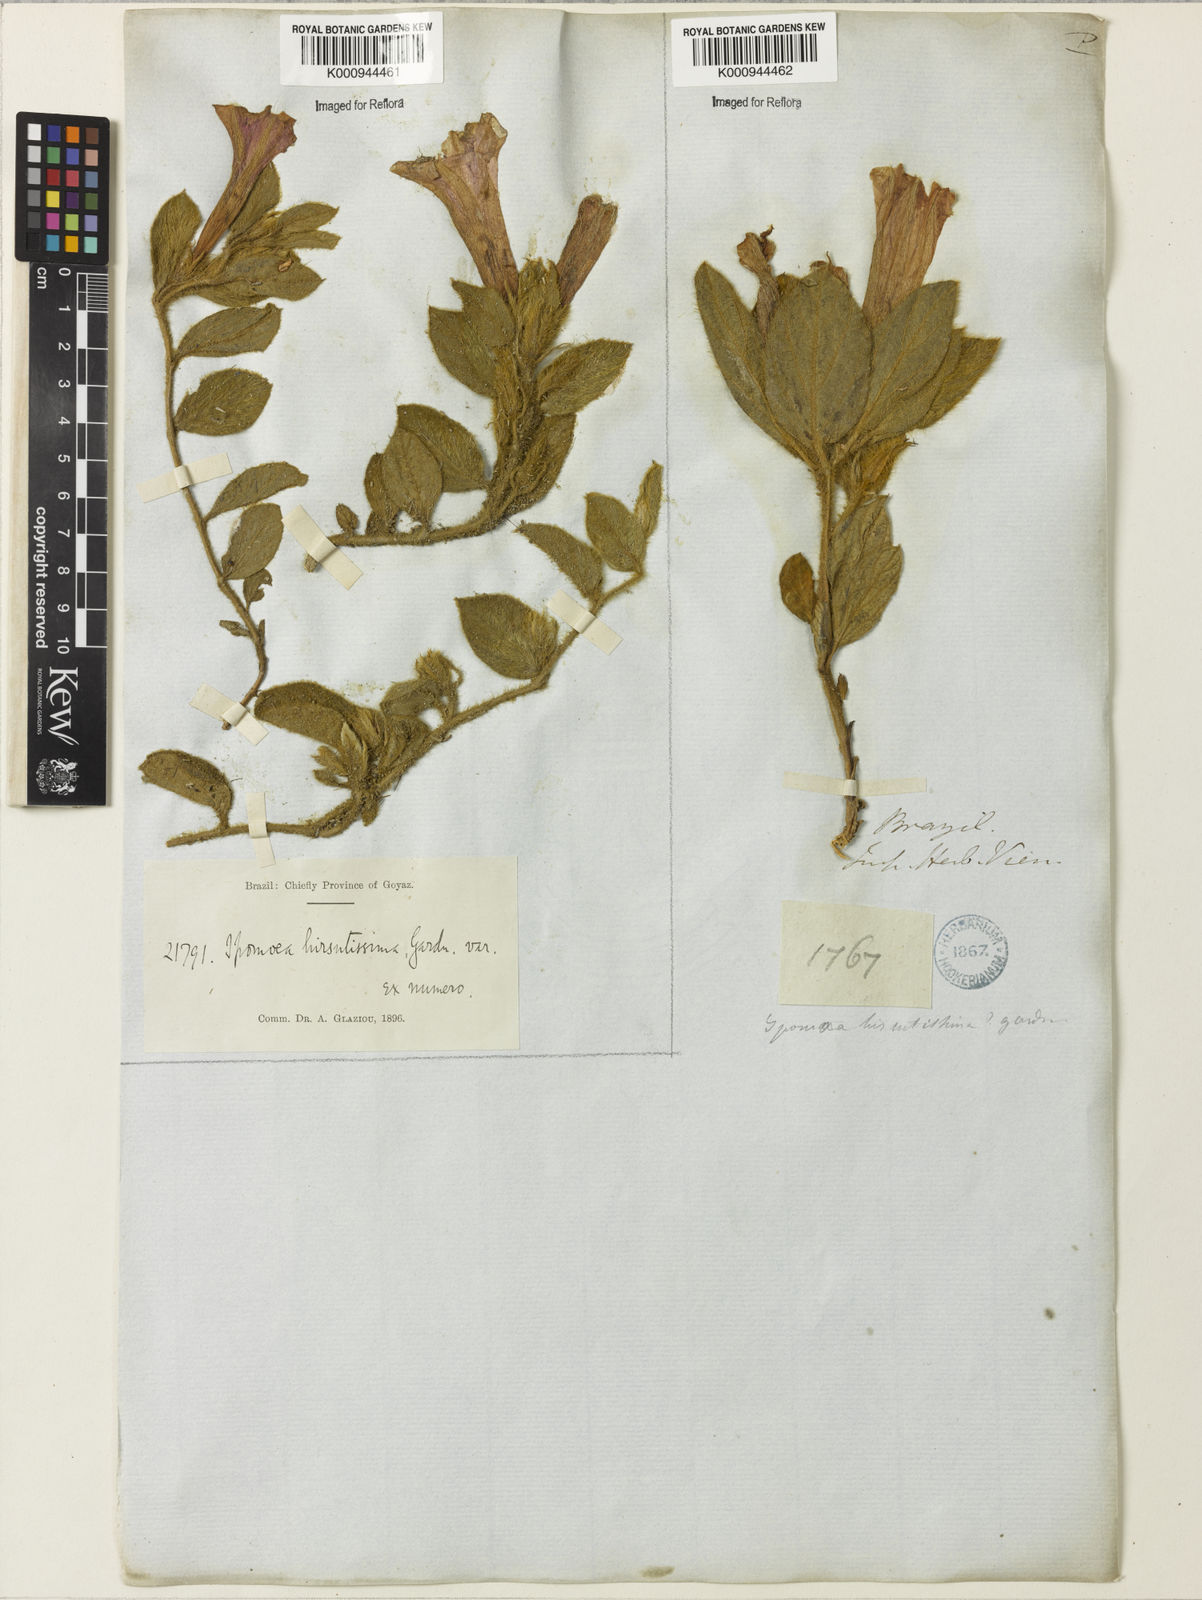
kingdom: Plantae
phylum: Tracheophyta
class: Magnoliopsida
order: Solanales
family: Convolvulaceae
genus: Ipomoea
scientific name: Ipomoea hirsutissima
